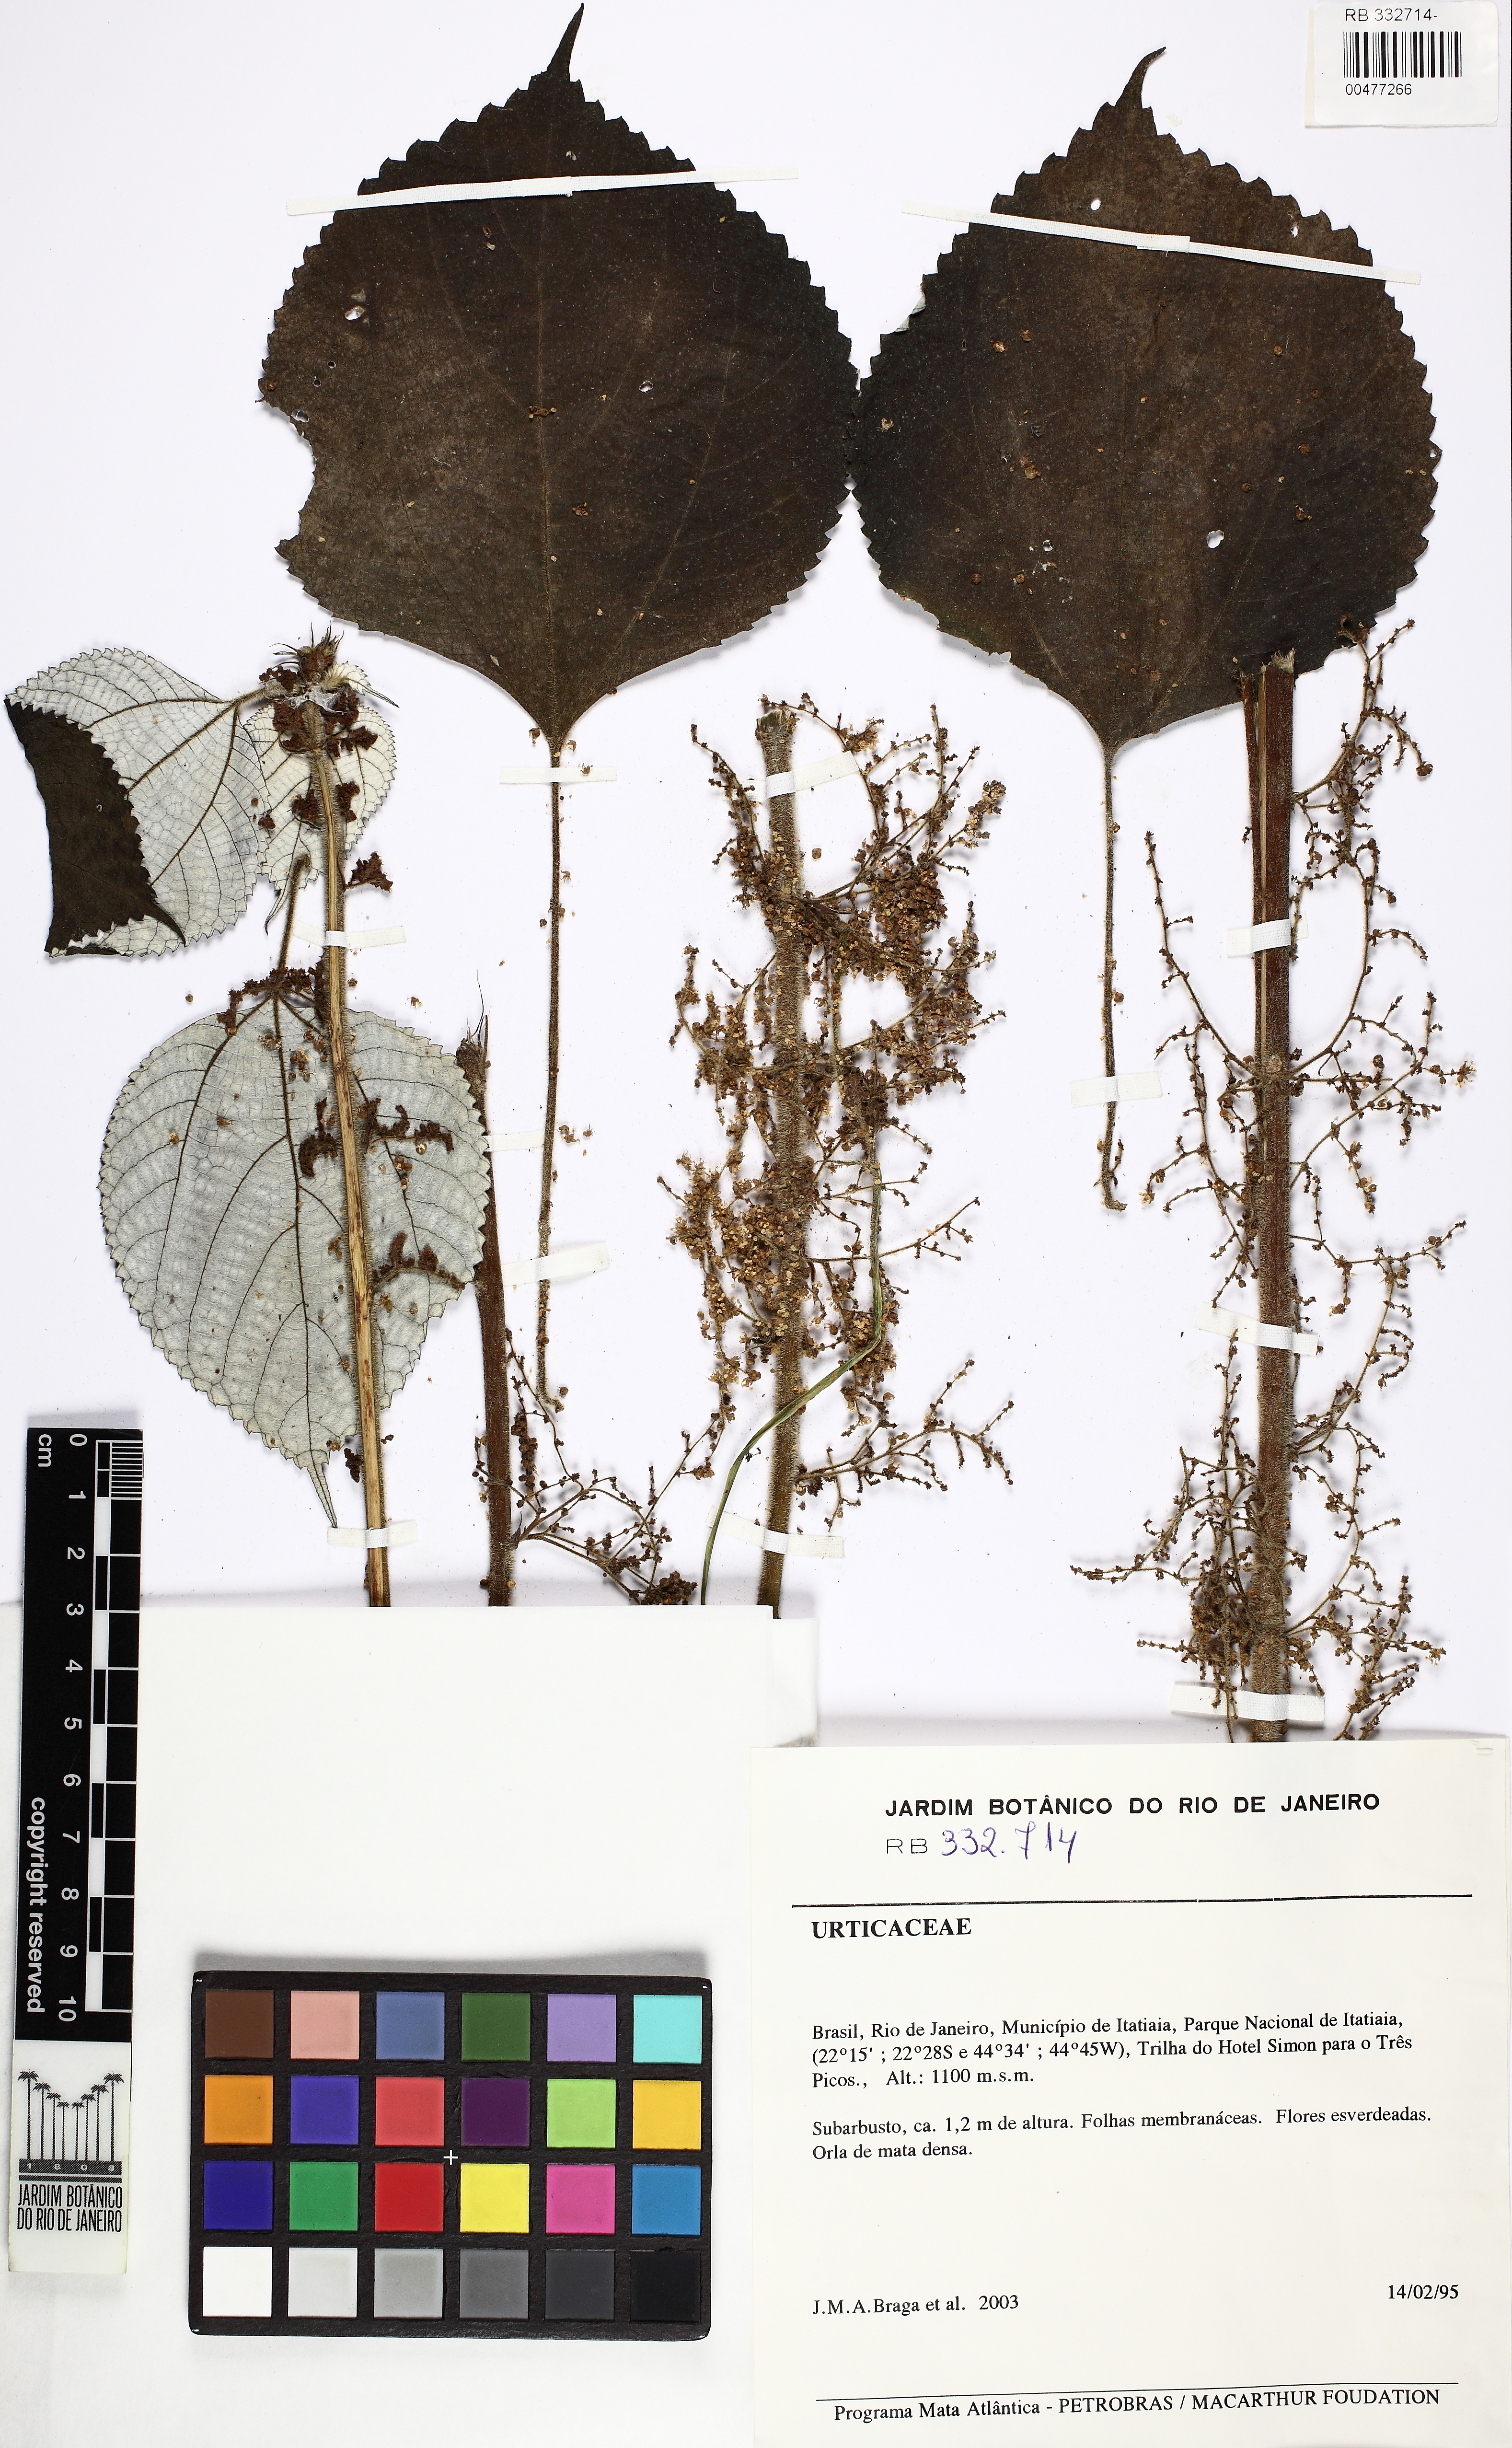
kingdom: Plantae
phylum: Tracheophyta
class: Magnoliopsida
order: Rosales
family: Urticaceae
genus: Boehmeria
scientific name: Boehmeria nivea
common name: Ramie chinese grass
